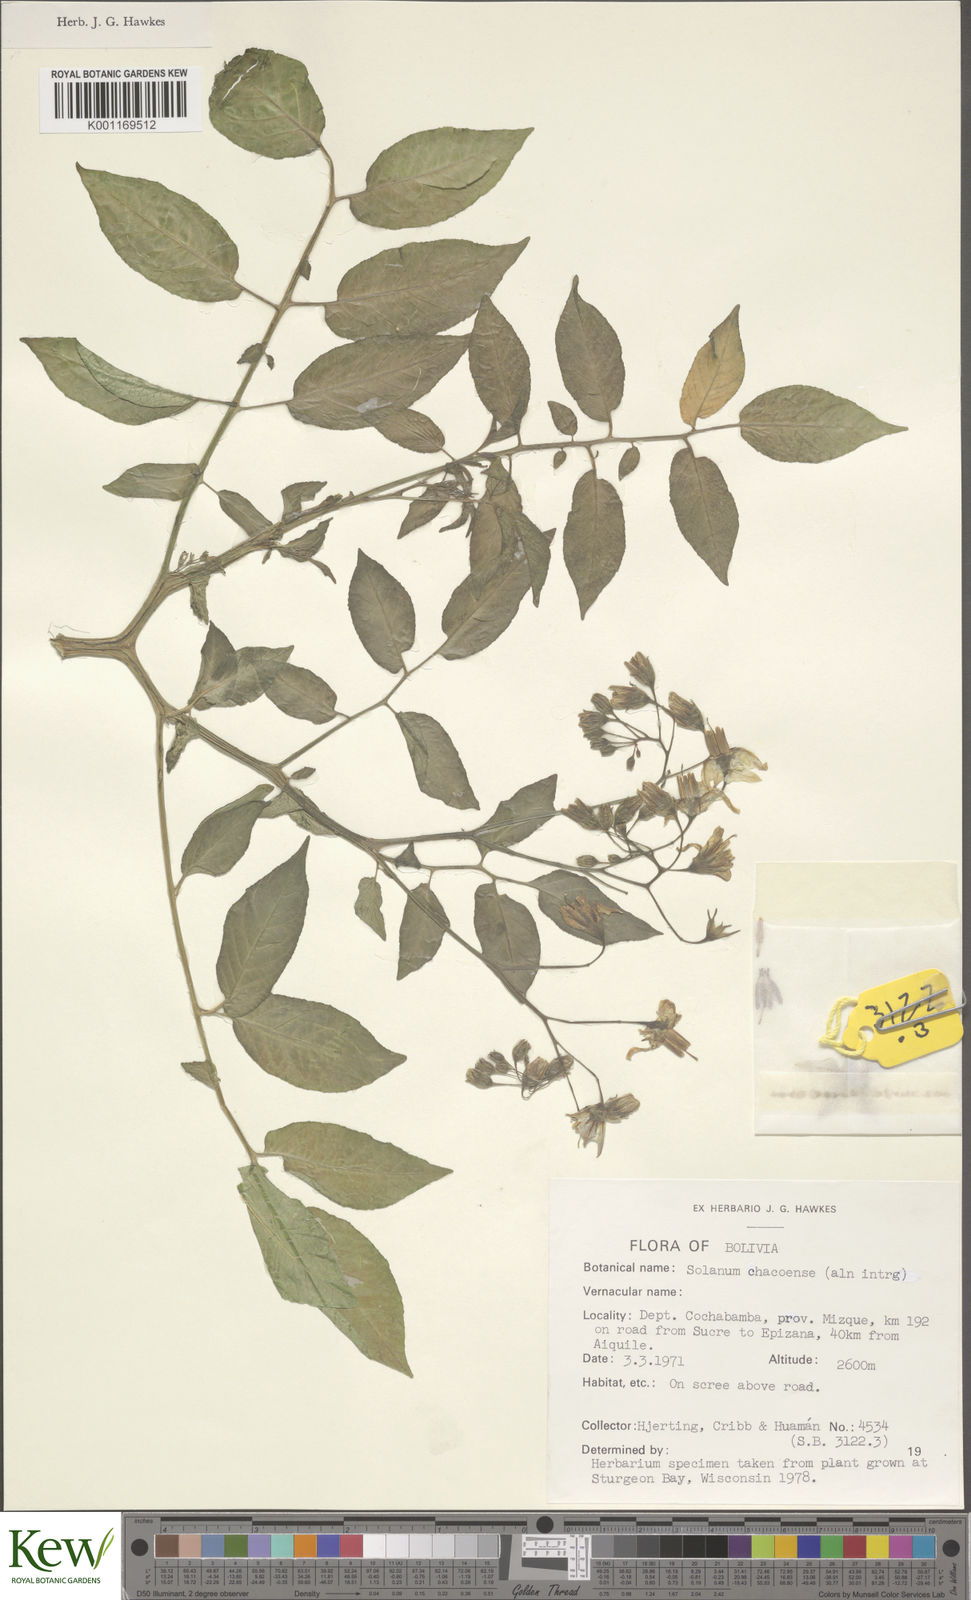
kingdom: Plantae
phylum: Tracheophyta
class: Magnoliopsida
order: Solanales
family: Solanaceae
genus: Solanum
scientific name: Solanum doddsii
